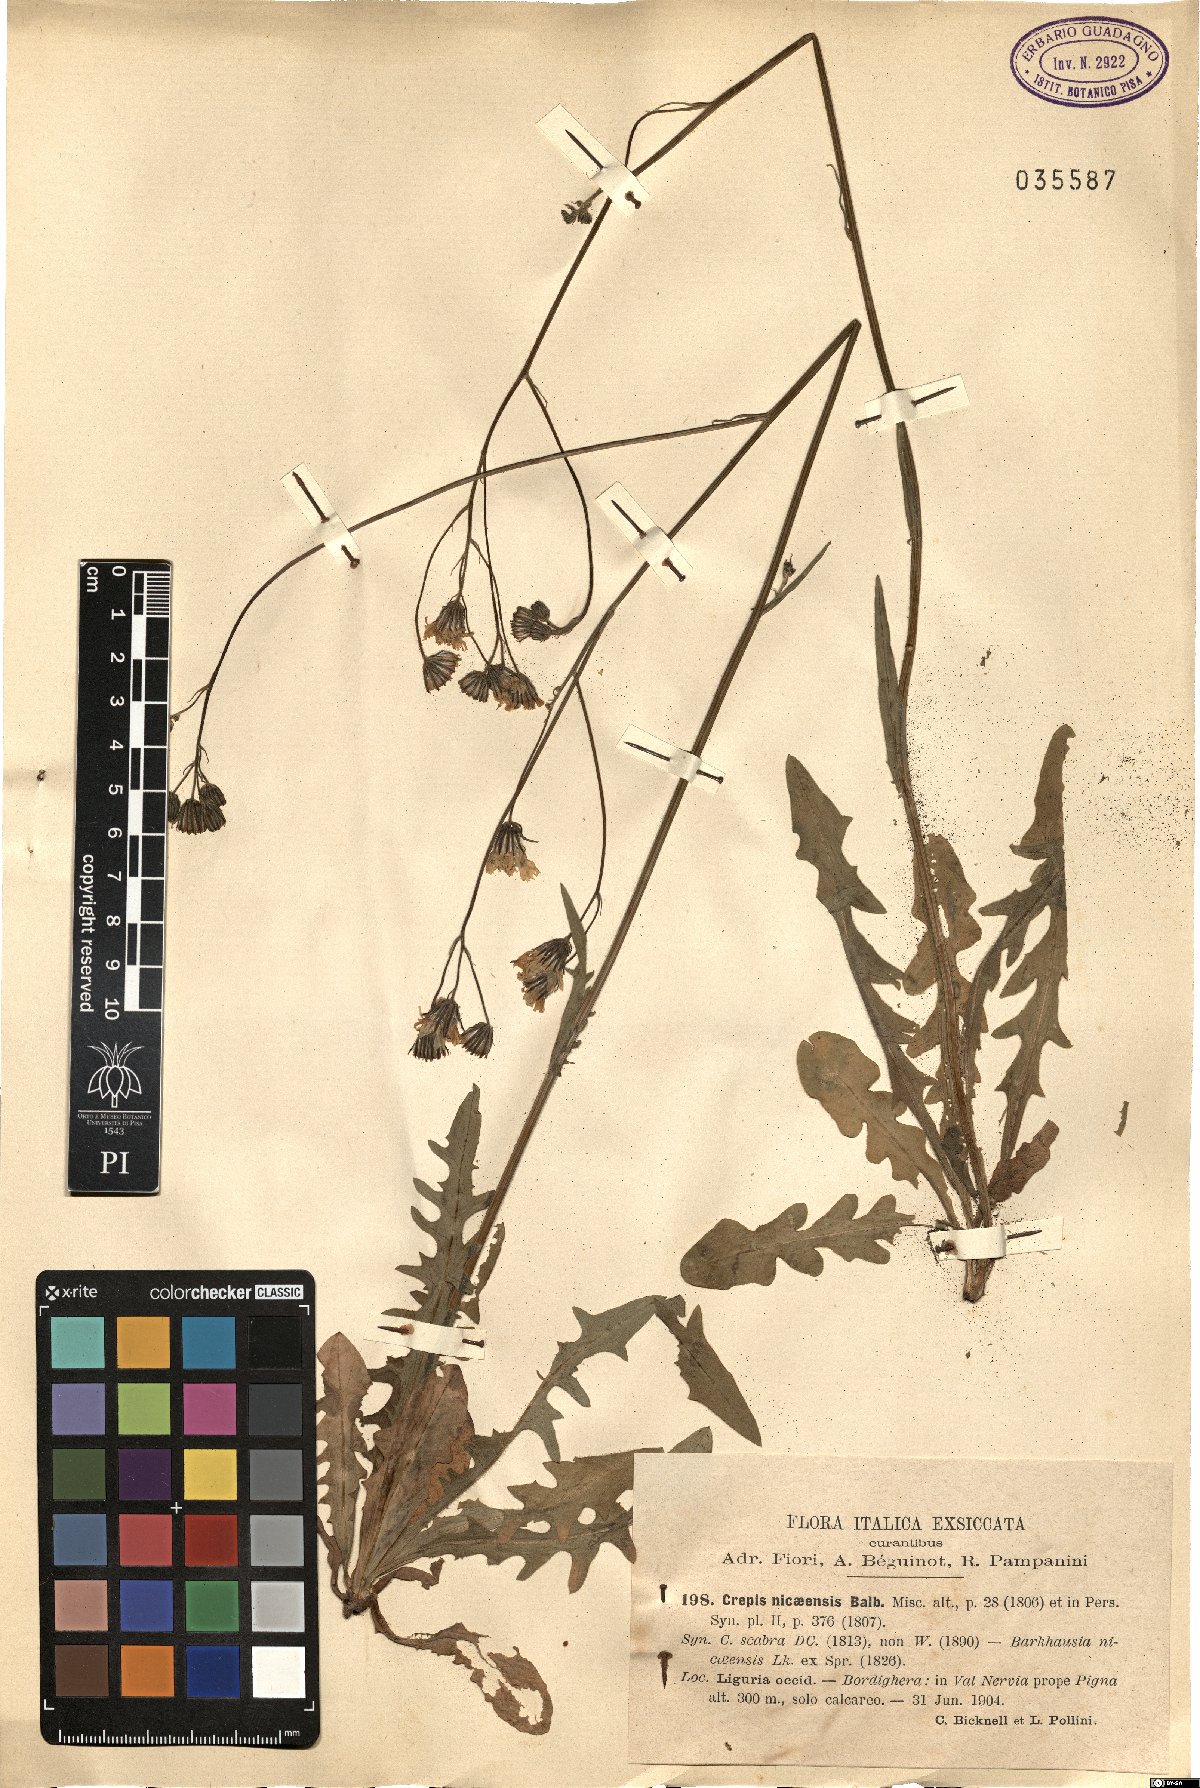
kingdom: Plantae
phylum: Tracheophyta
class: Magnoliopsida
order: Asterales
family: Asteraceae
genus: Crepis
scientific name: Crepis nicaeensis
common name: Turkish hawksbeard
